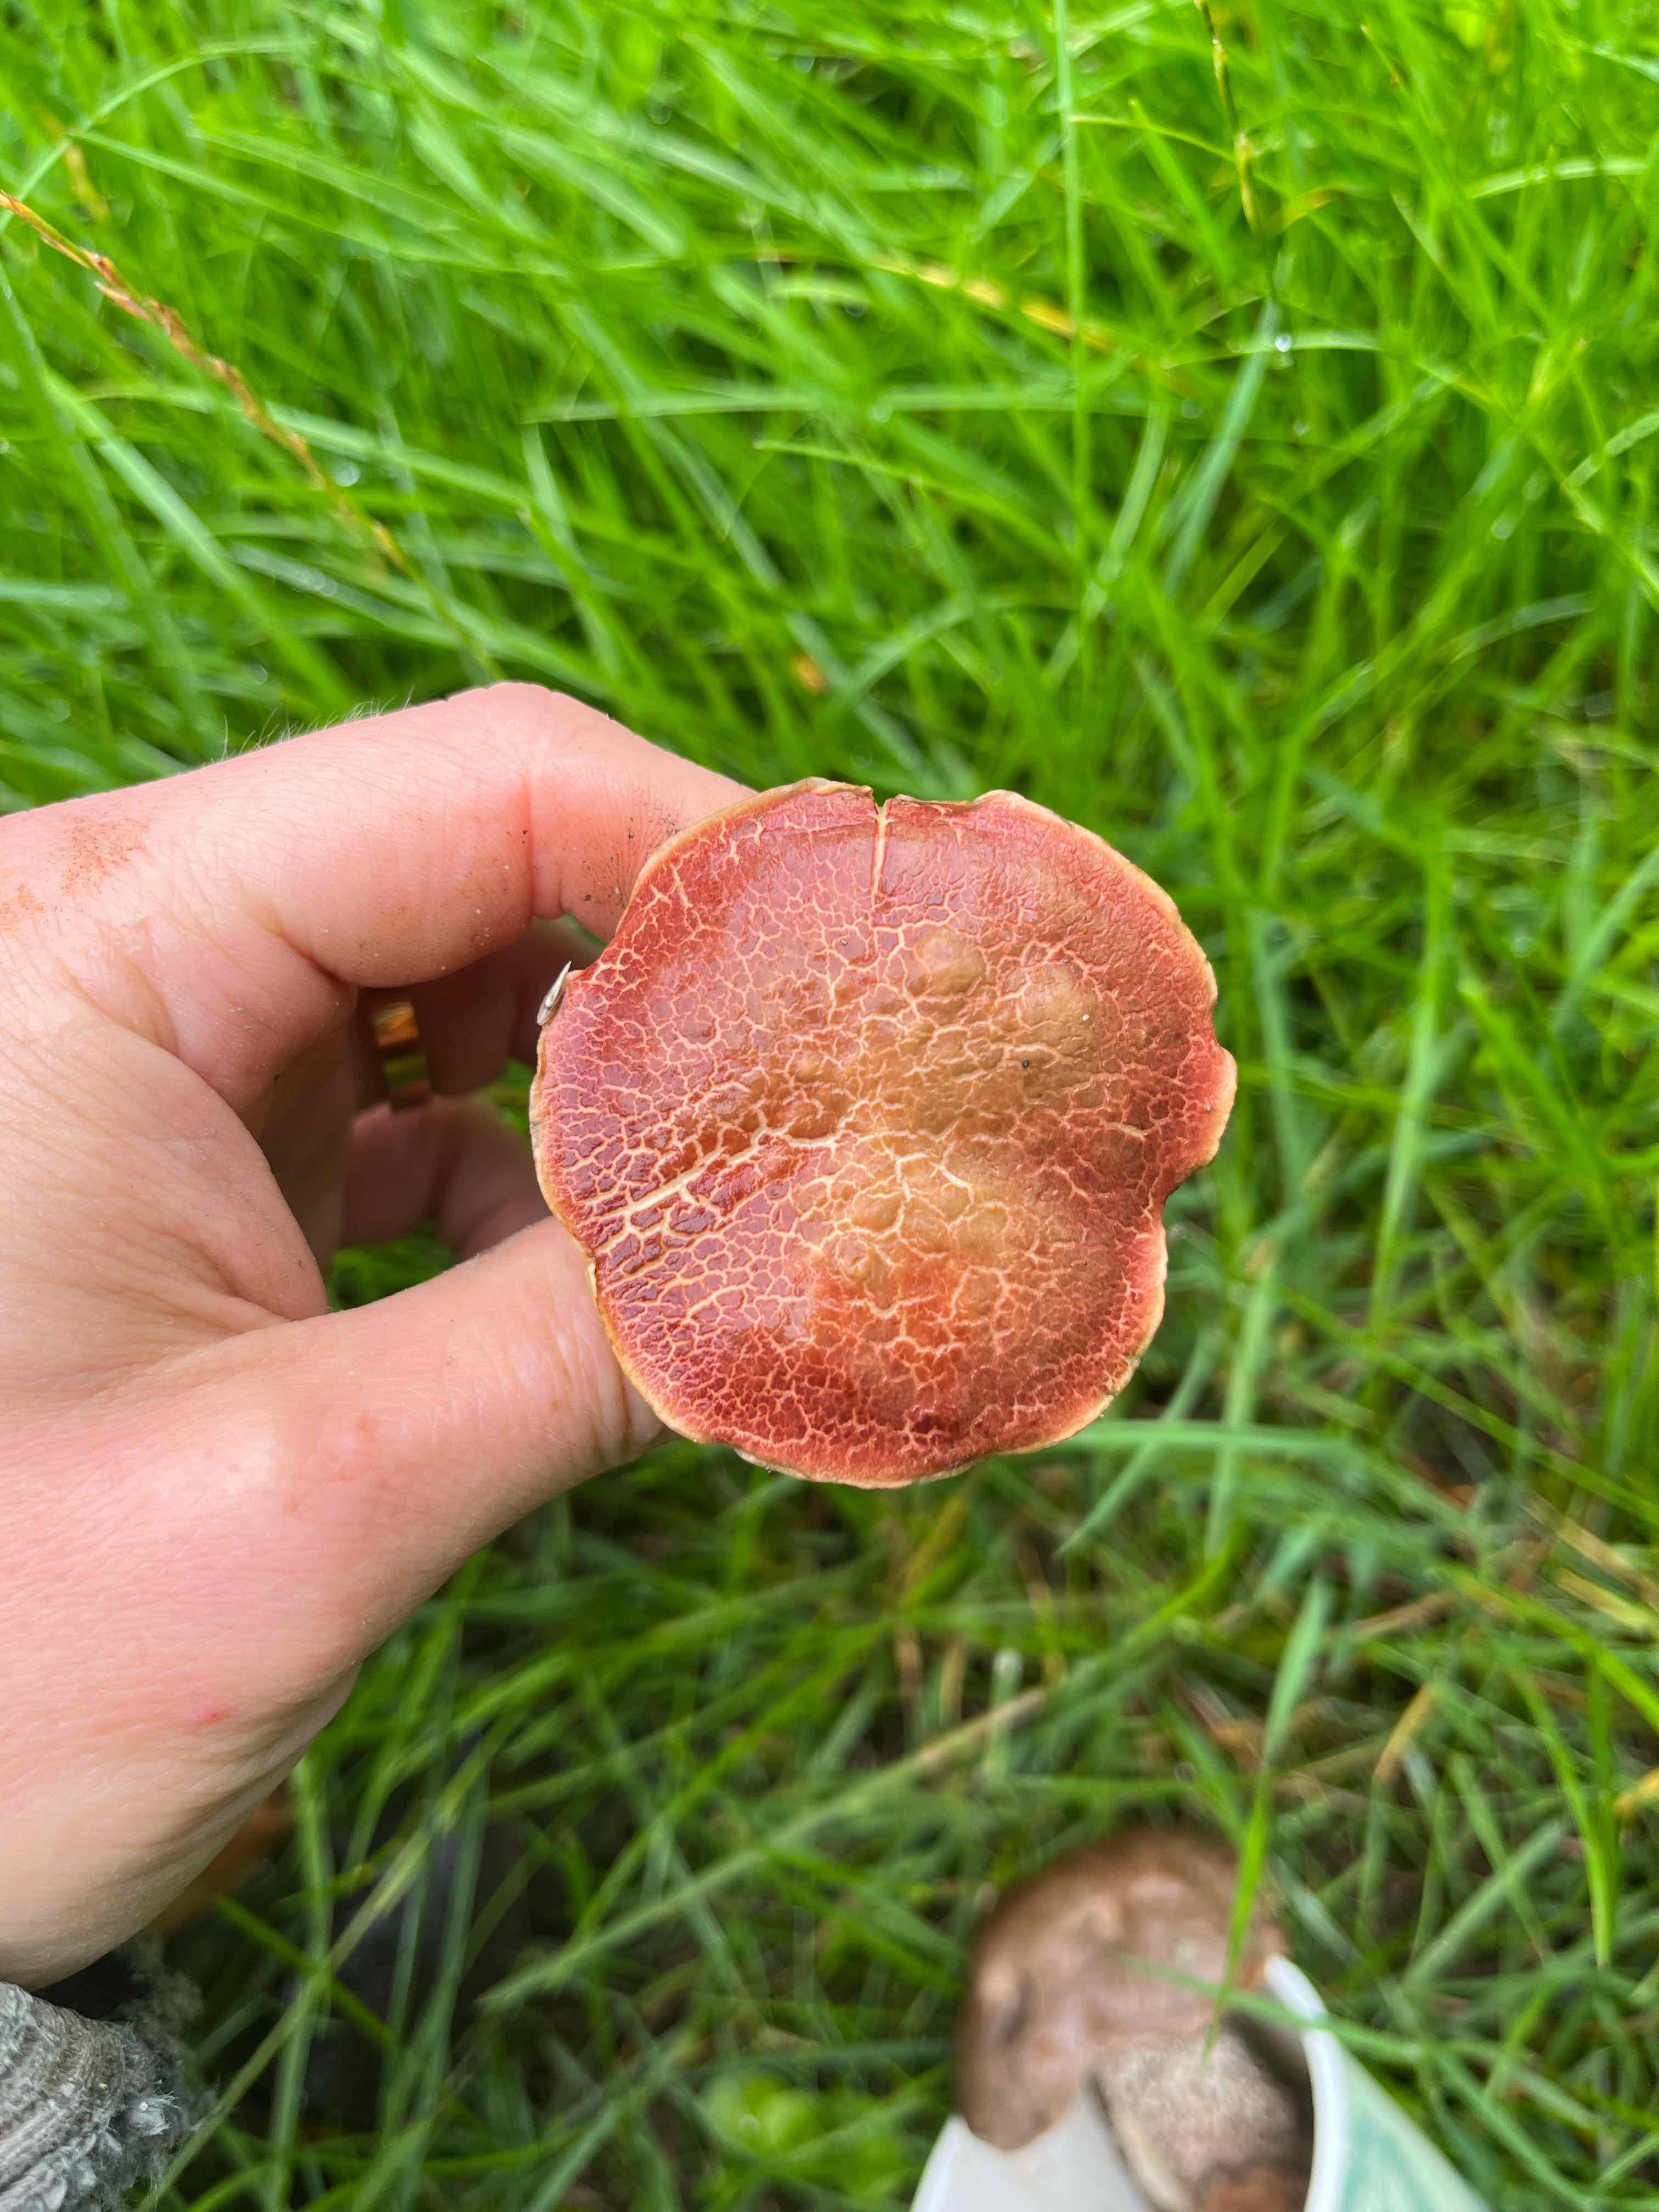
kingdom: Fungi
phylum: Basidiomycota
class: Agaricomycetes
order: Boletales
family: Boletaceae
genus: Xerocomellus
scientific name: Xerocomellus
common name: dværgrørhat
